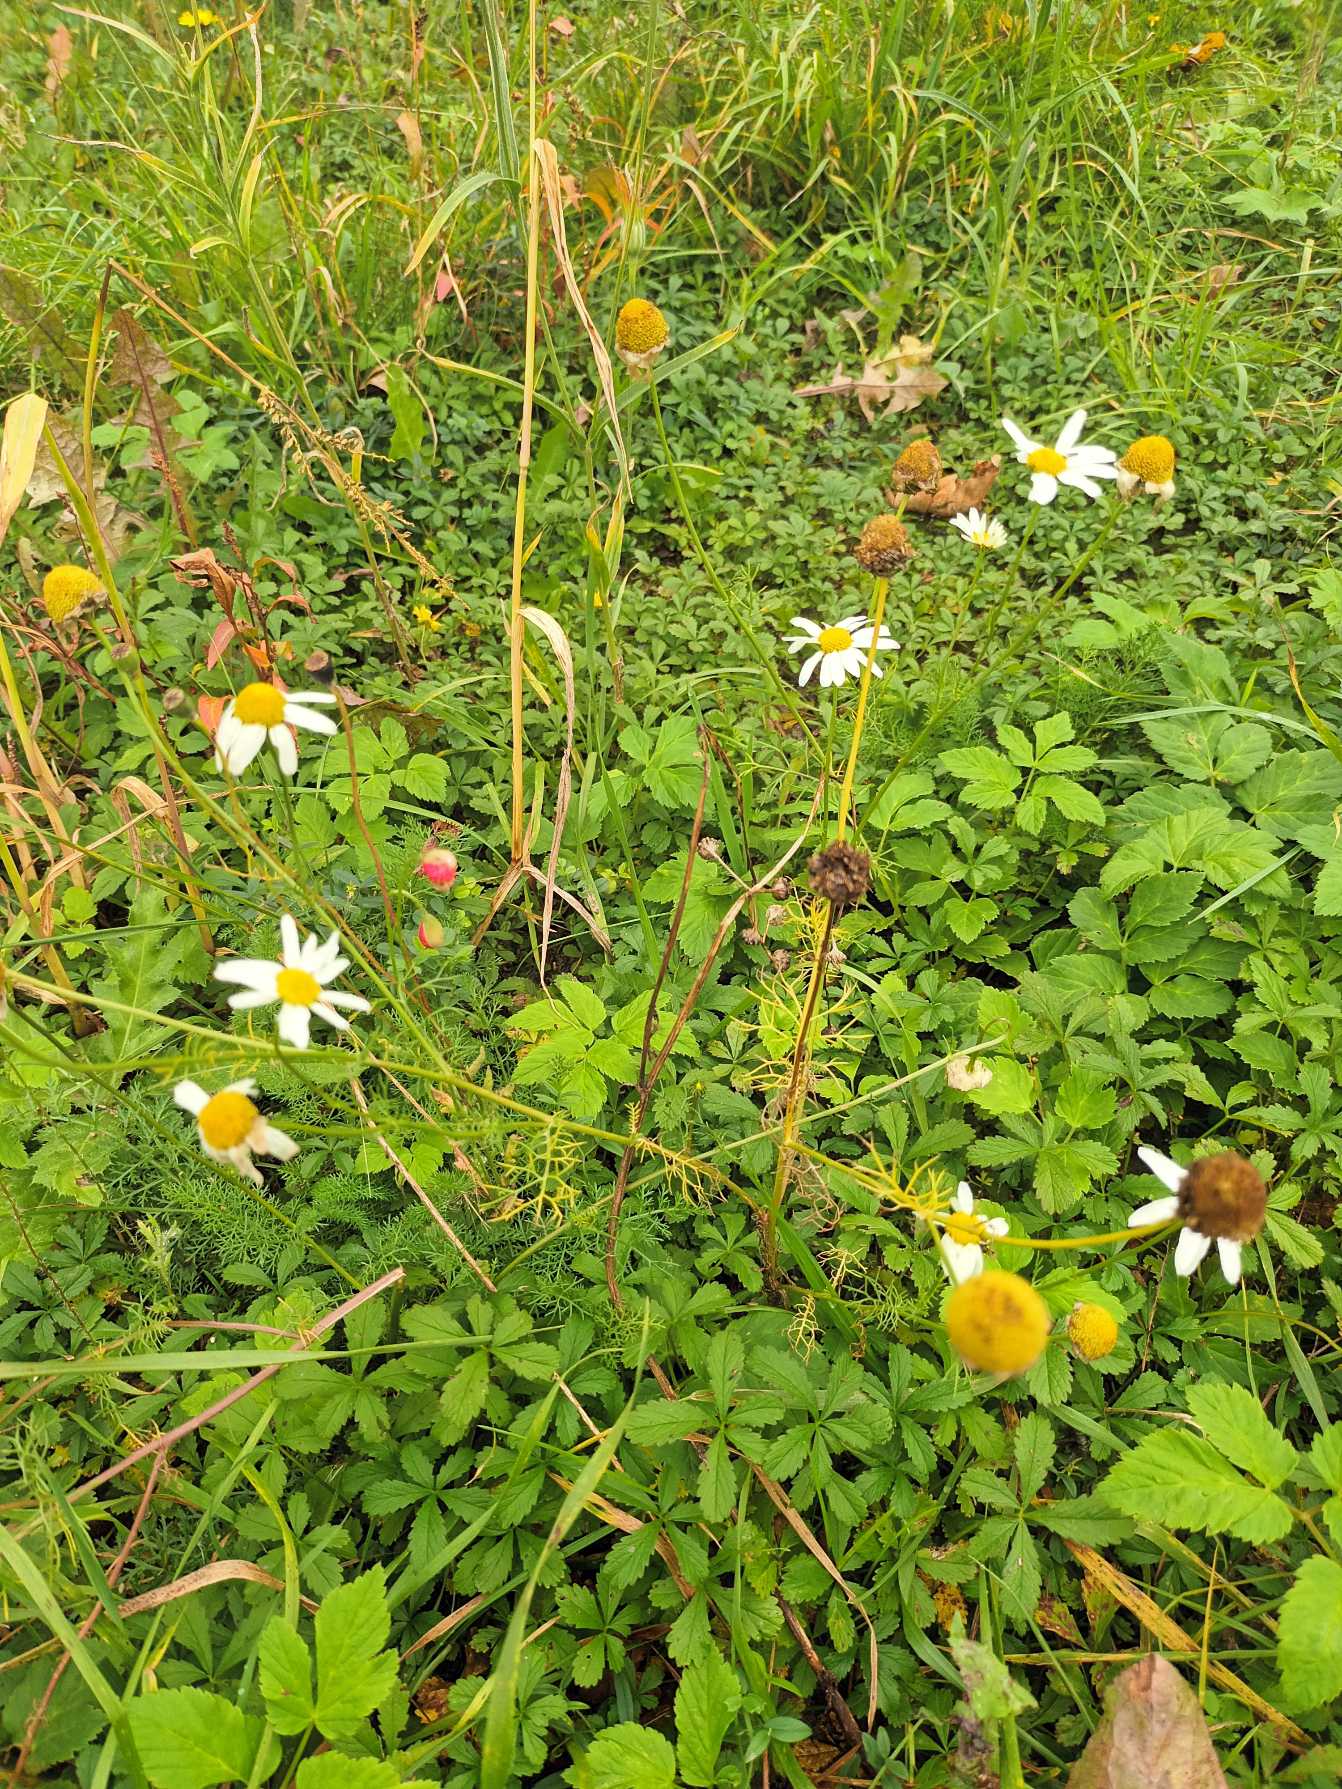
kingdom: Plantae
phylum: Tracheophyta
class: Magnoliopsida
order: Asterales
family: Asteraceae
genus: Tripleurospermum
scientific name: Tripleurospermum inodorum
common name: Lugtløs kamille
